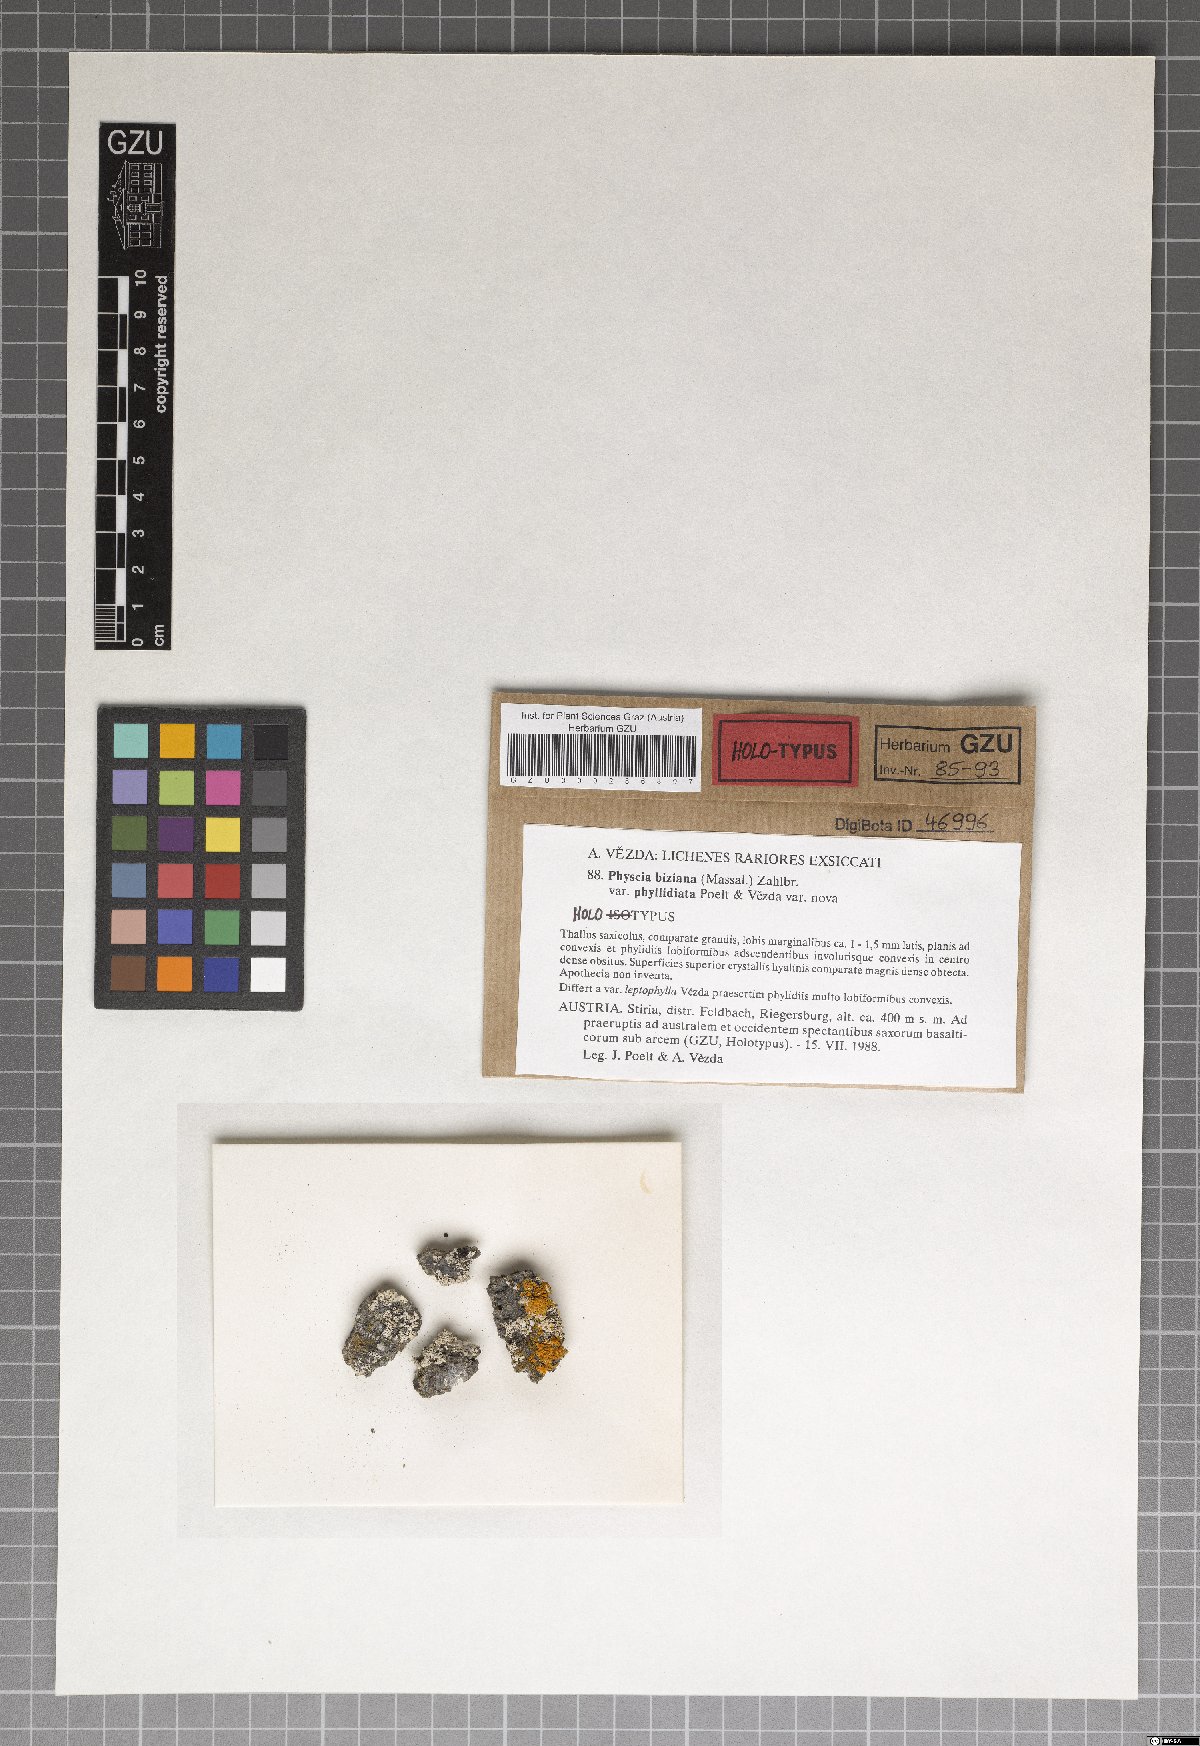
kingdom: Fungi
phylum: Ascomycota
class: Lecanoromycetes
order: Caliciales
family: Physciaceae
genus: Physcia
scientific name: Physcia biziana
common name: Frosted rosette lichen
